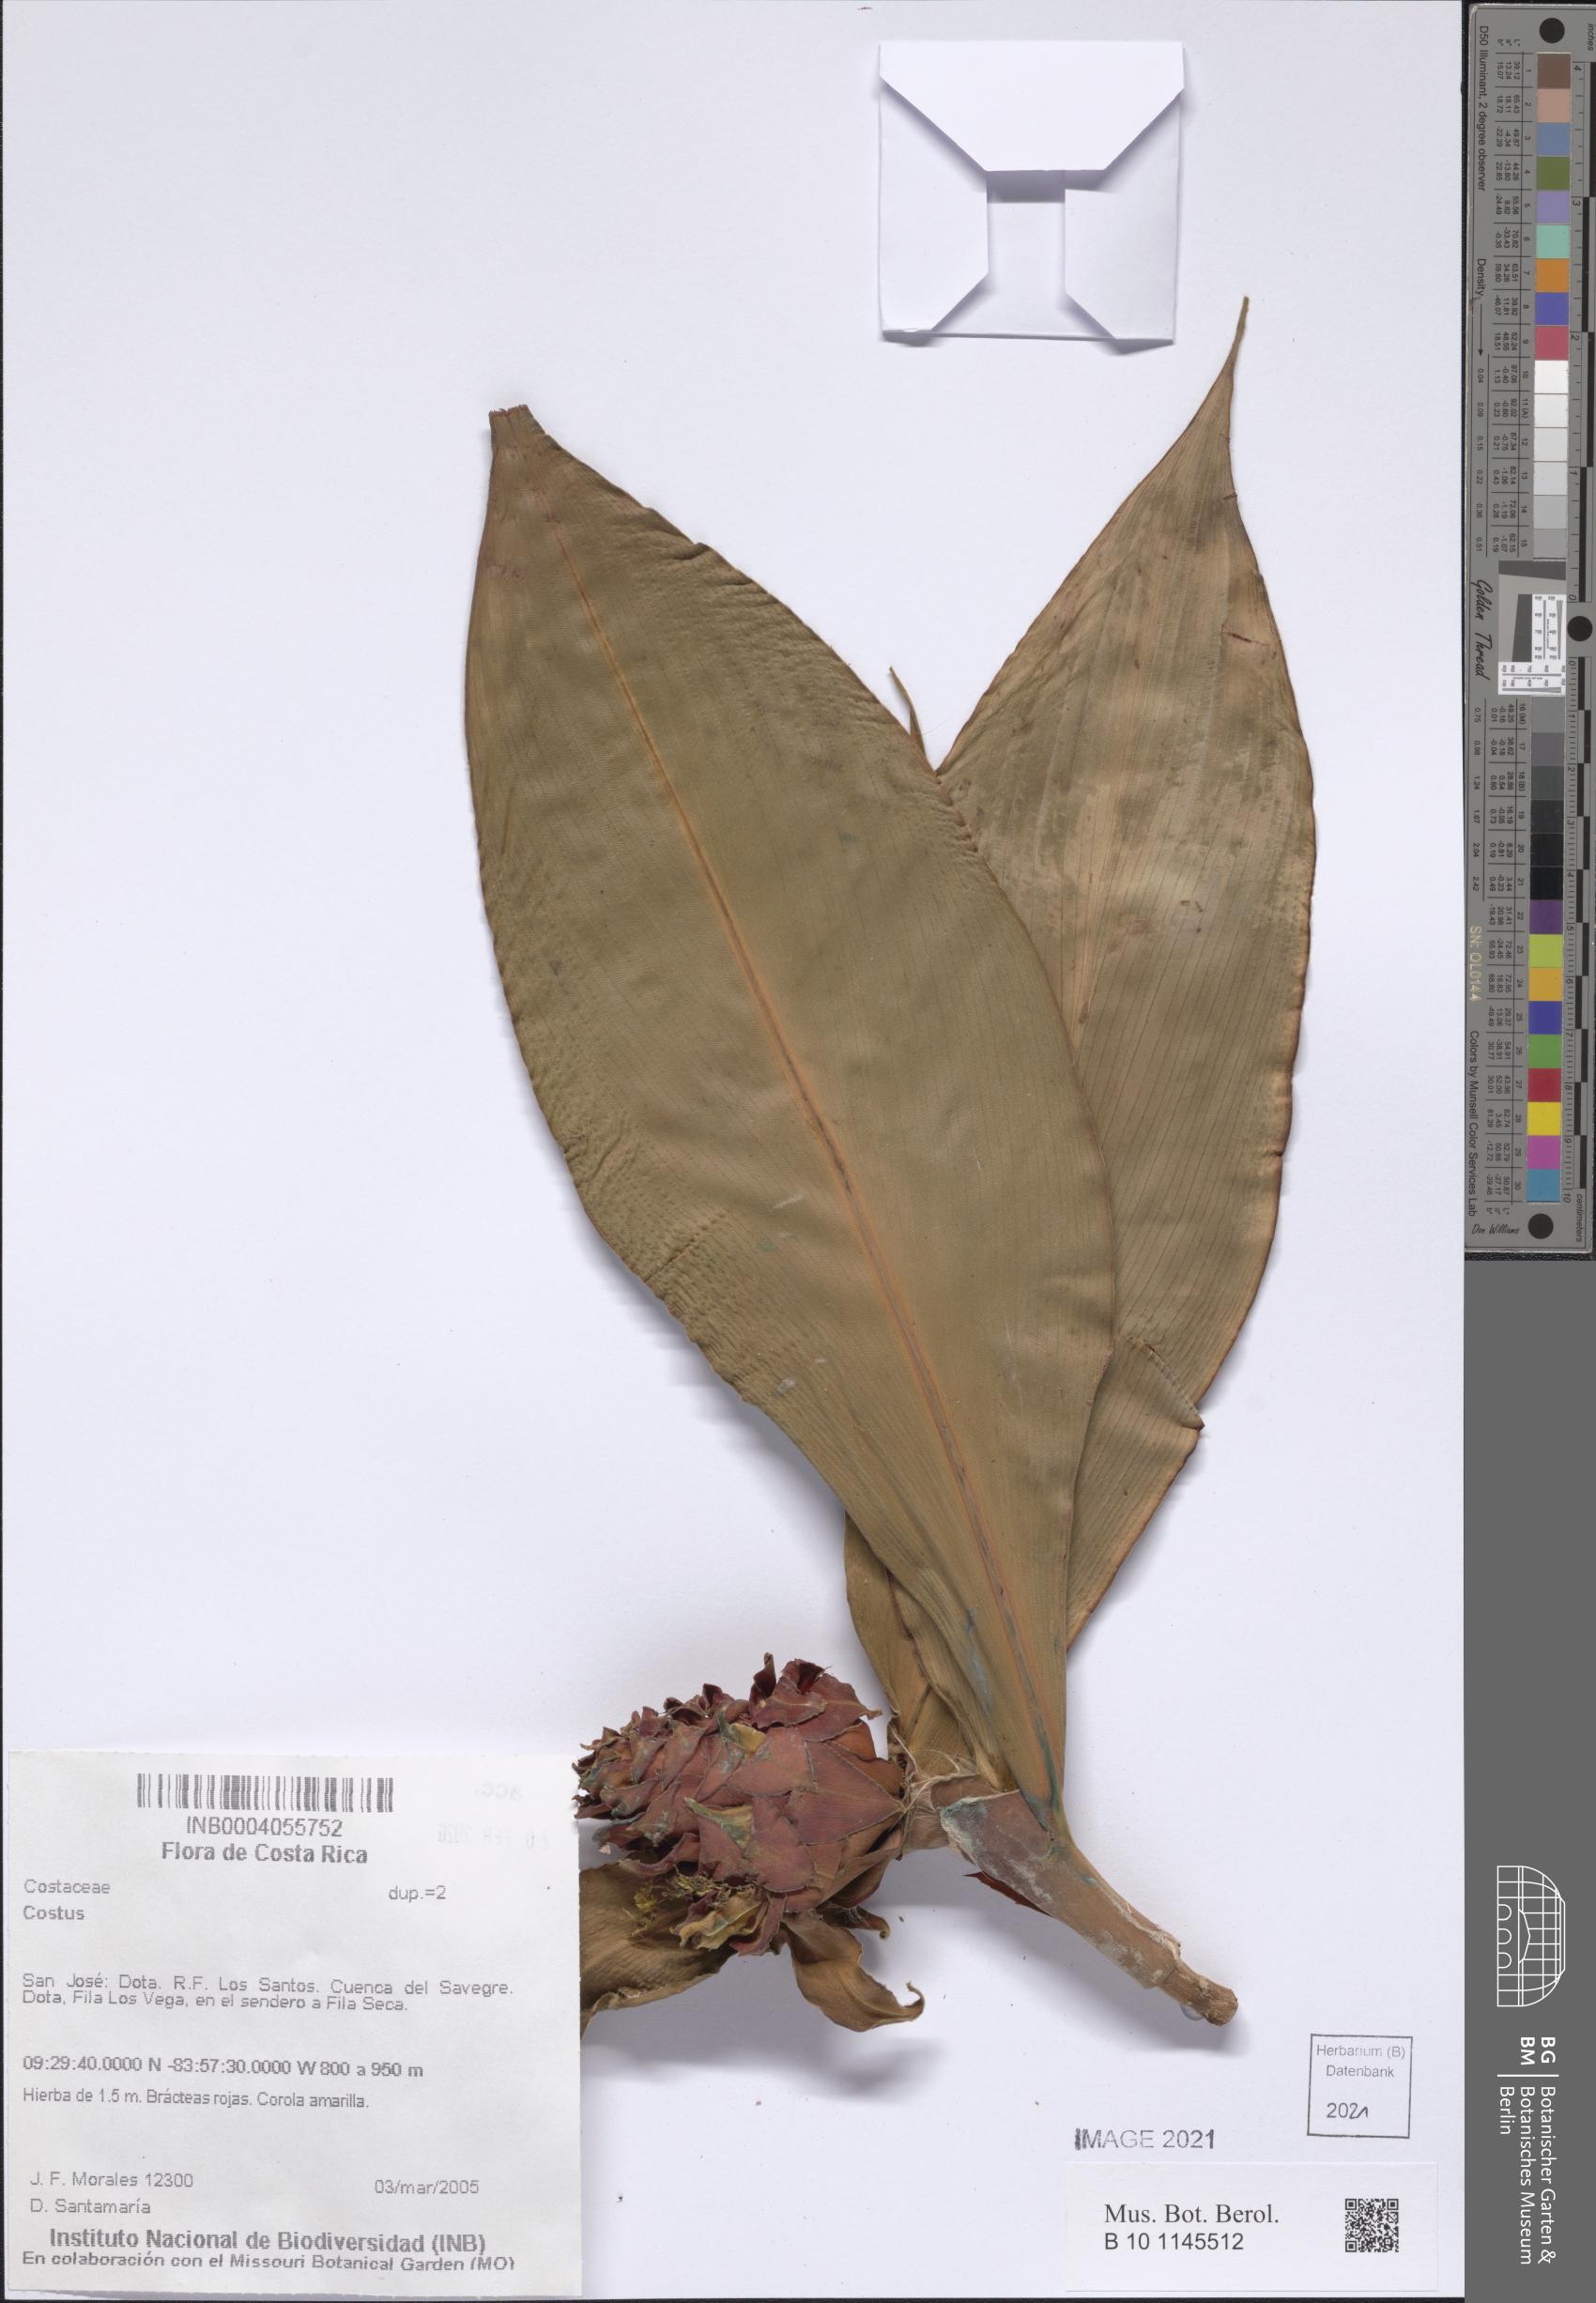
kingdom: Plantae
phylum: Tracheophyta
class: Liliopsida
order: Zingiberales
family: Costaceae
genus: Costus
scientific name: Costus
